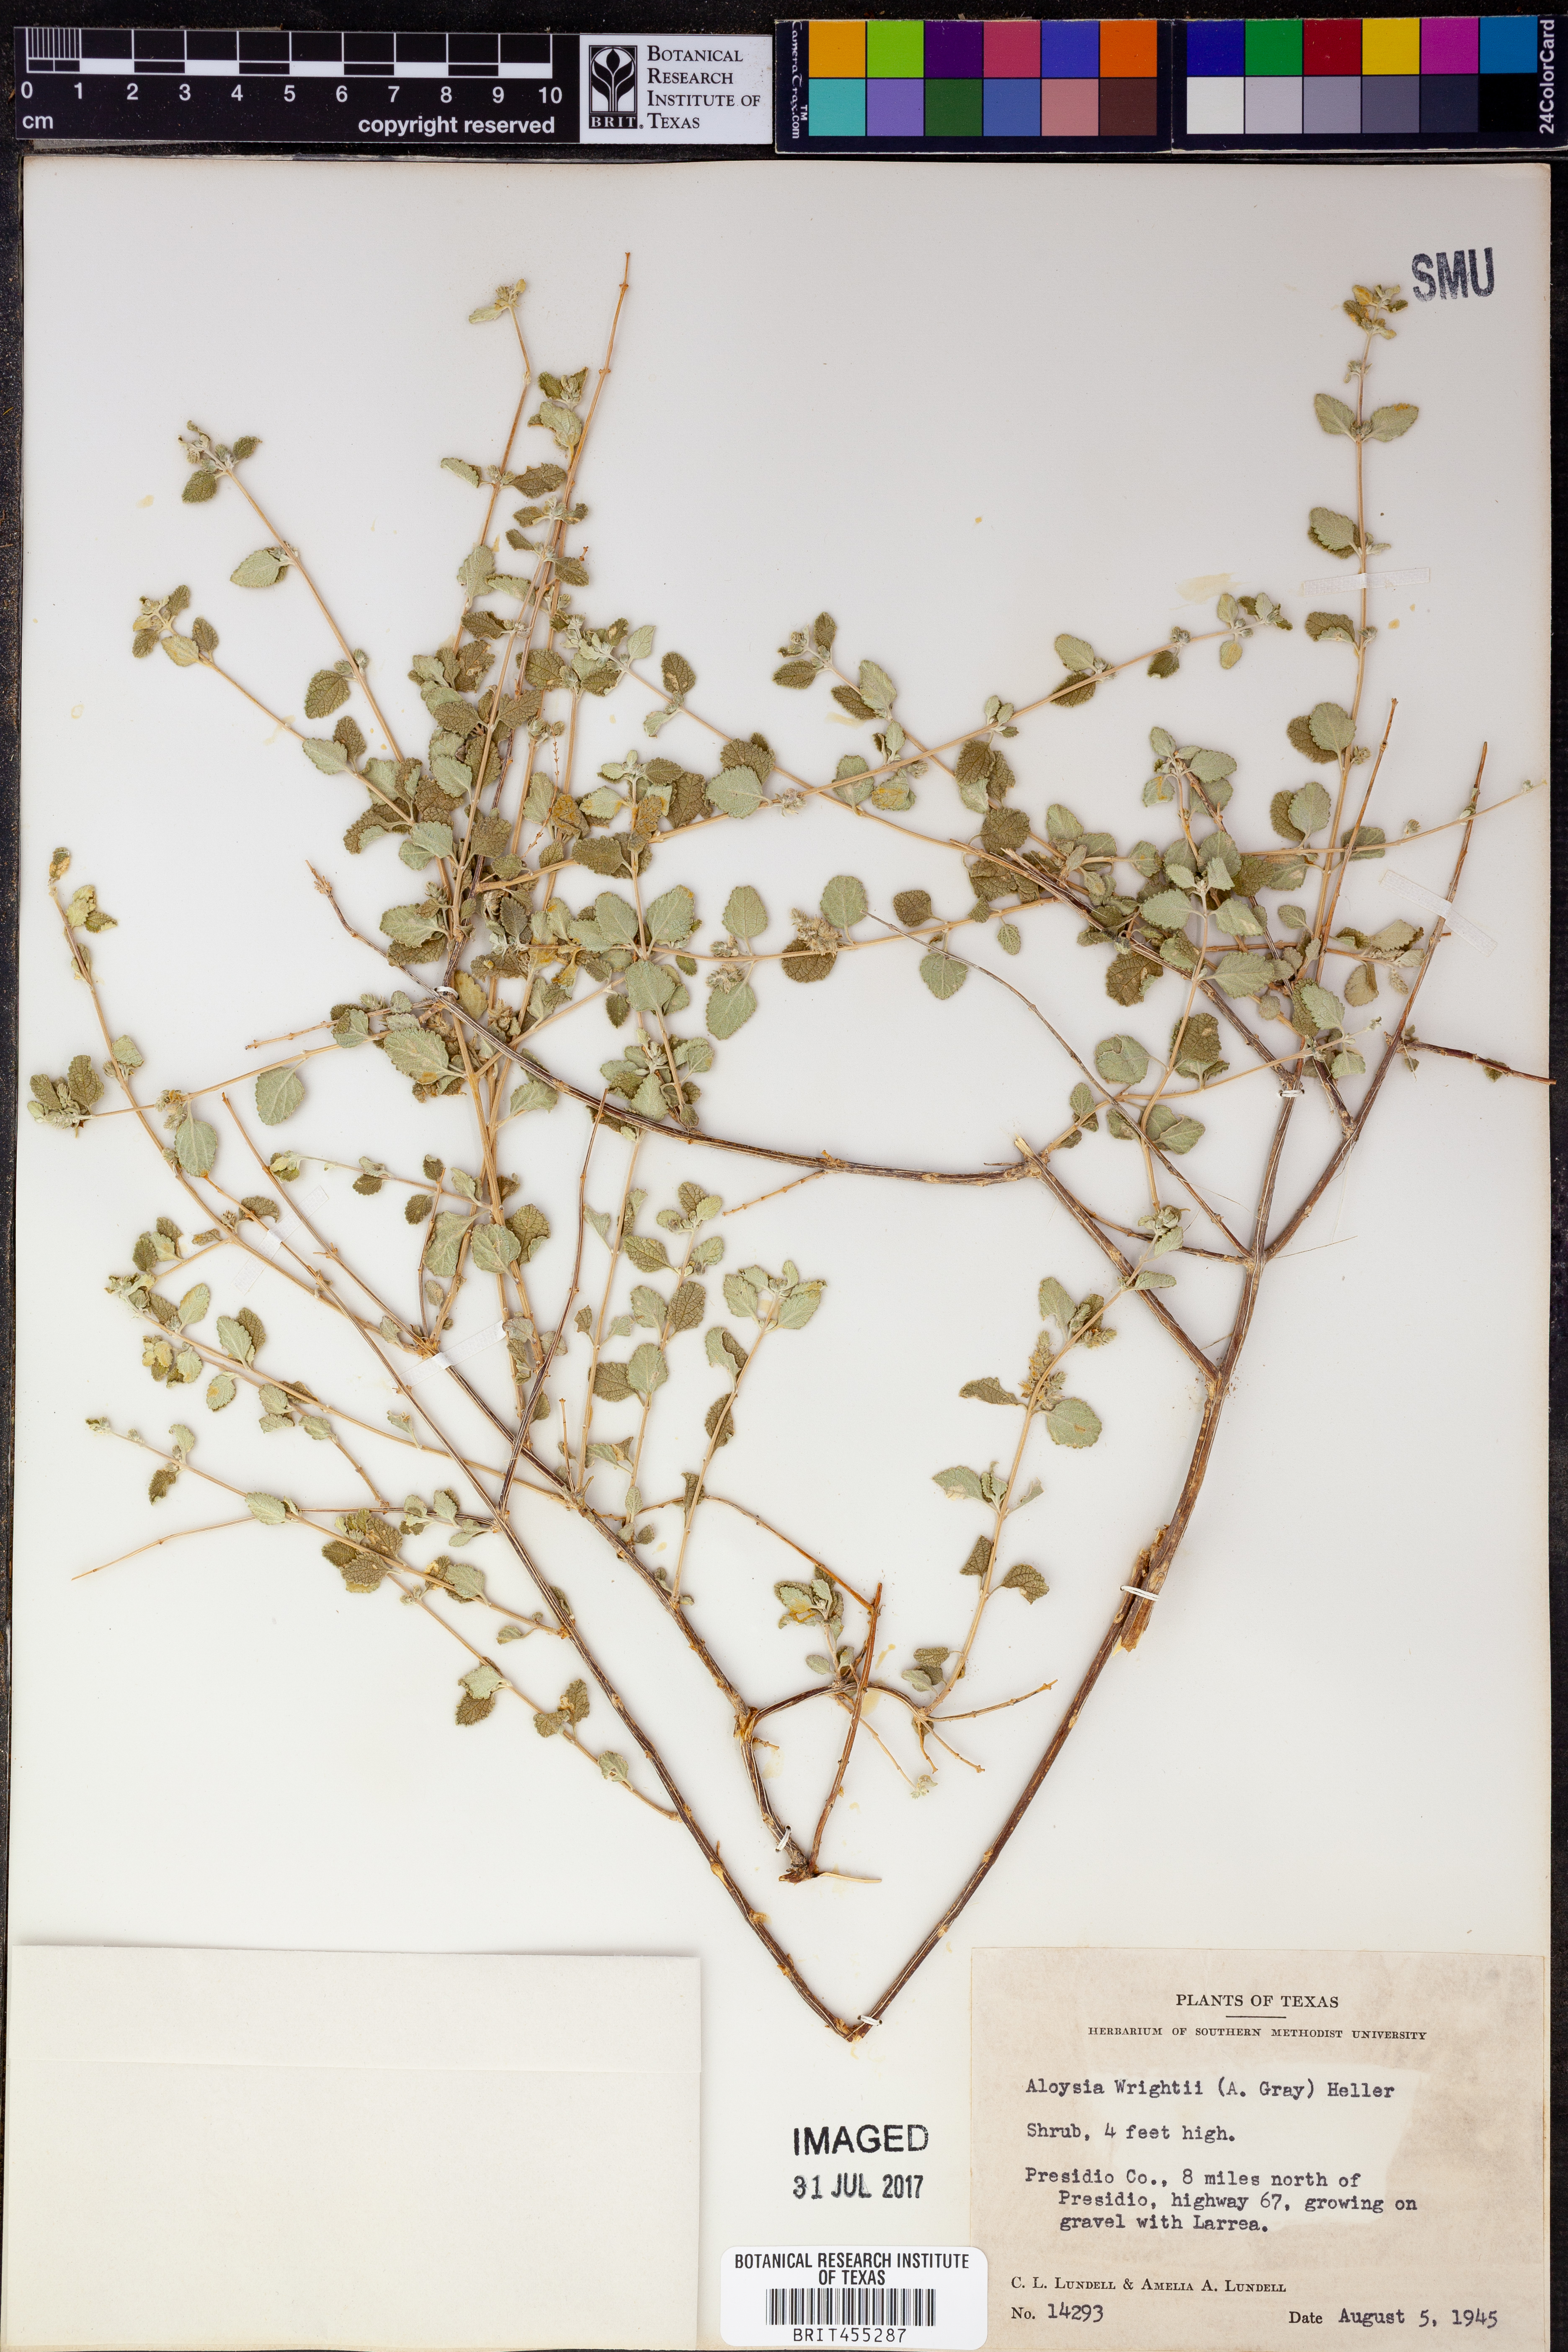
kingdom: Plantae
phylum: Tracheophyta
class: Magnoliopsida
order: Lamiales
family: Verbenaceae
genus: Aloysia
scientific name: Aloysia wrightii
